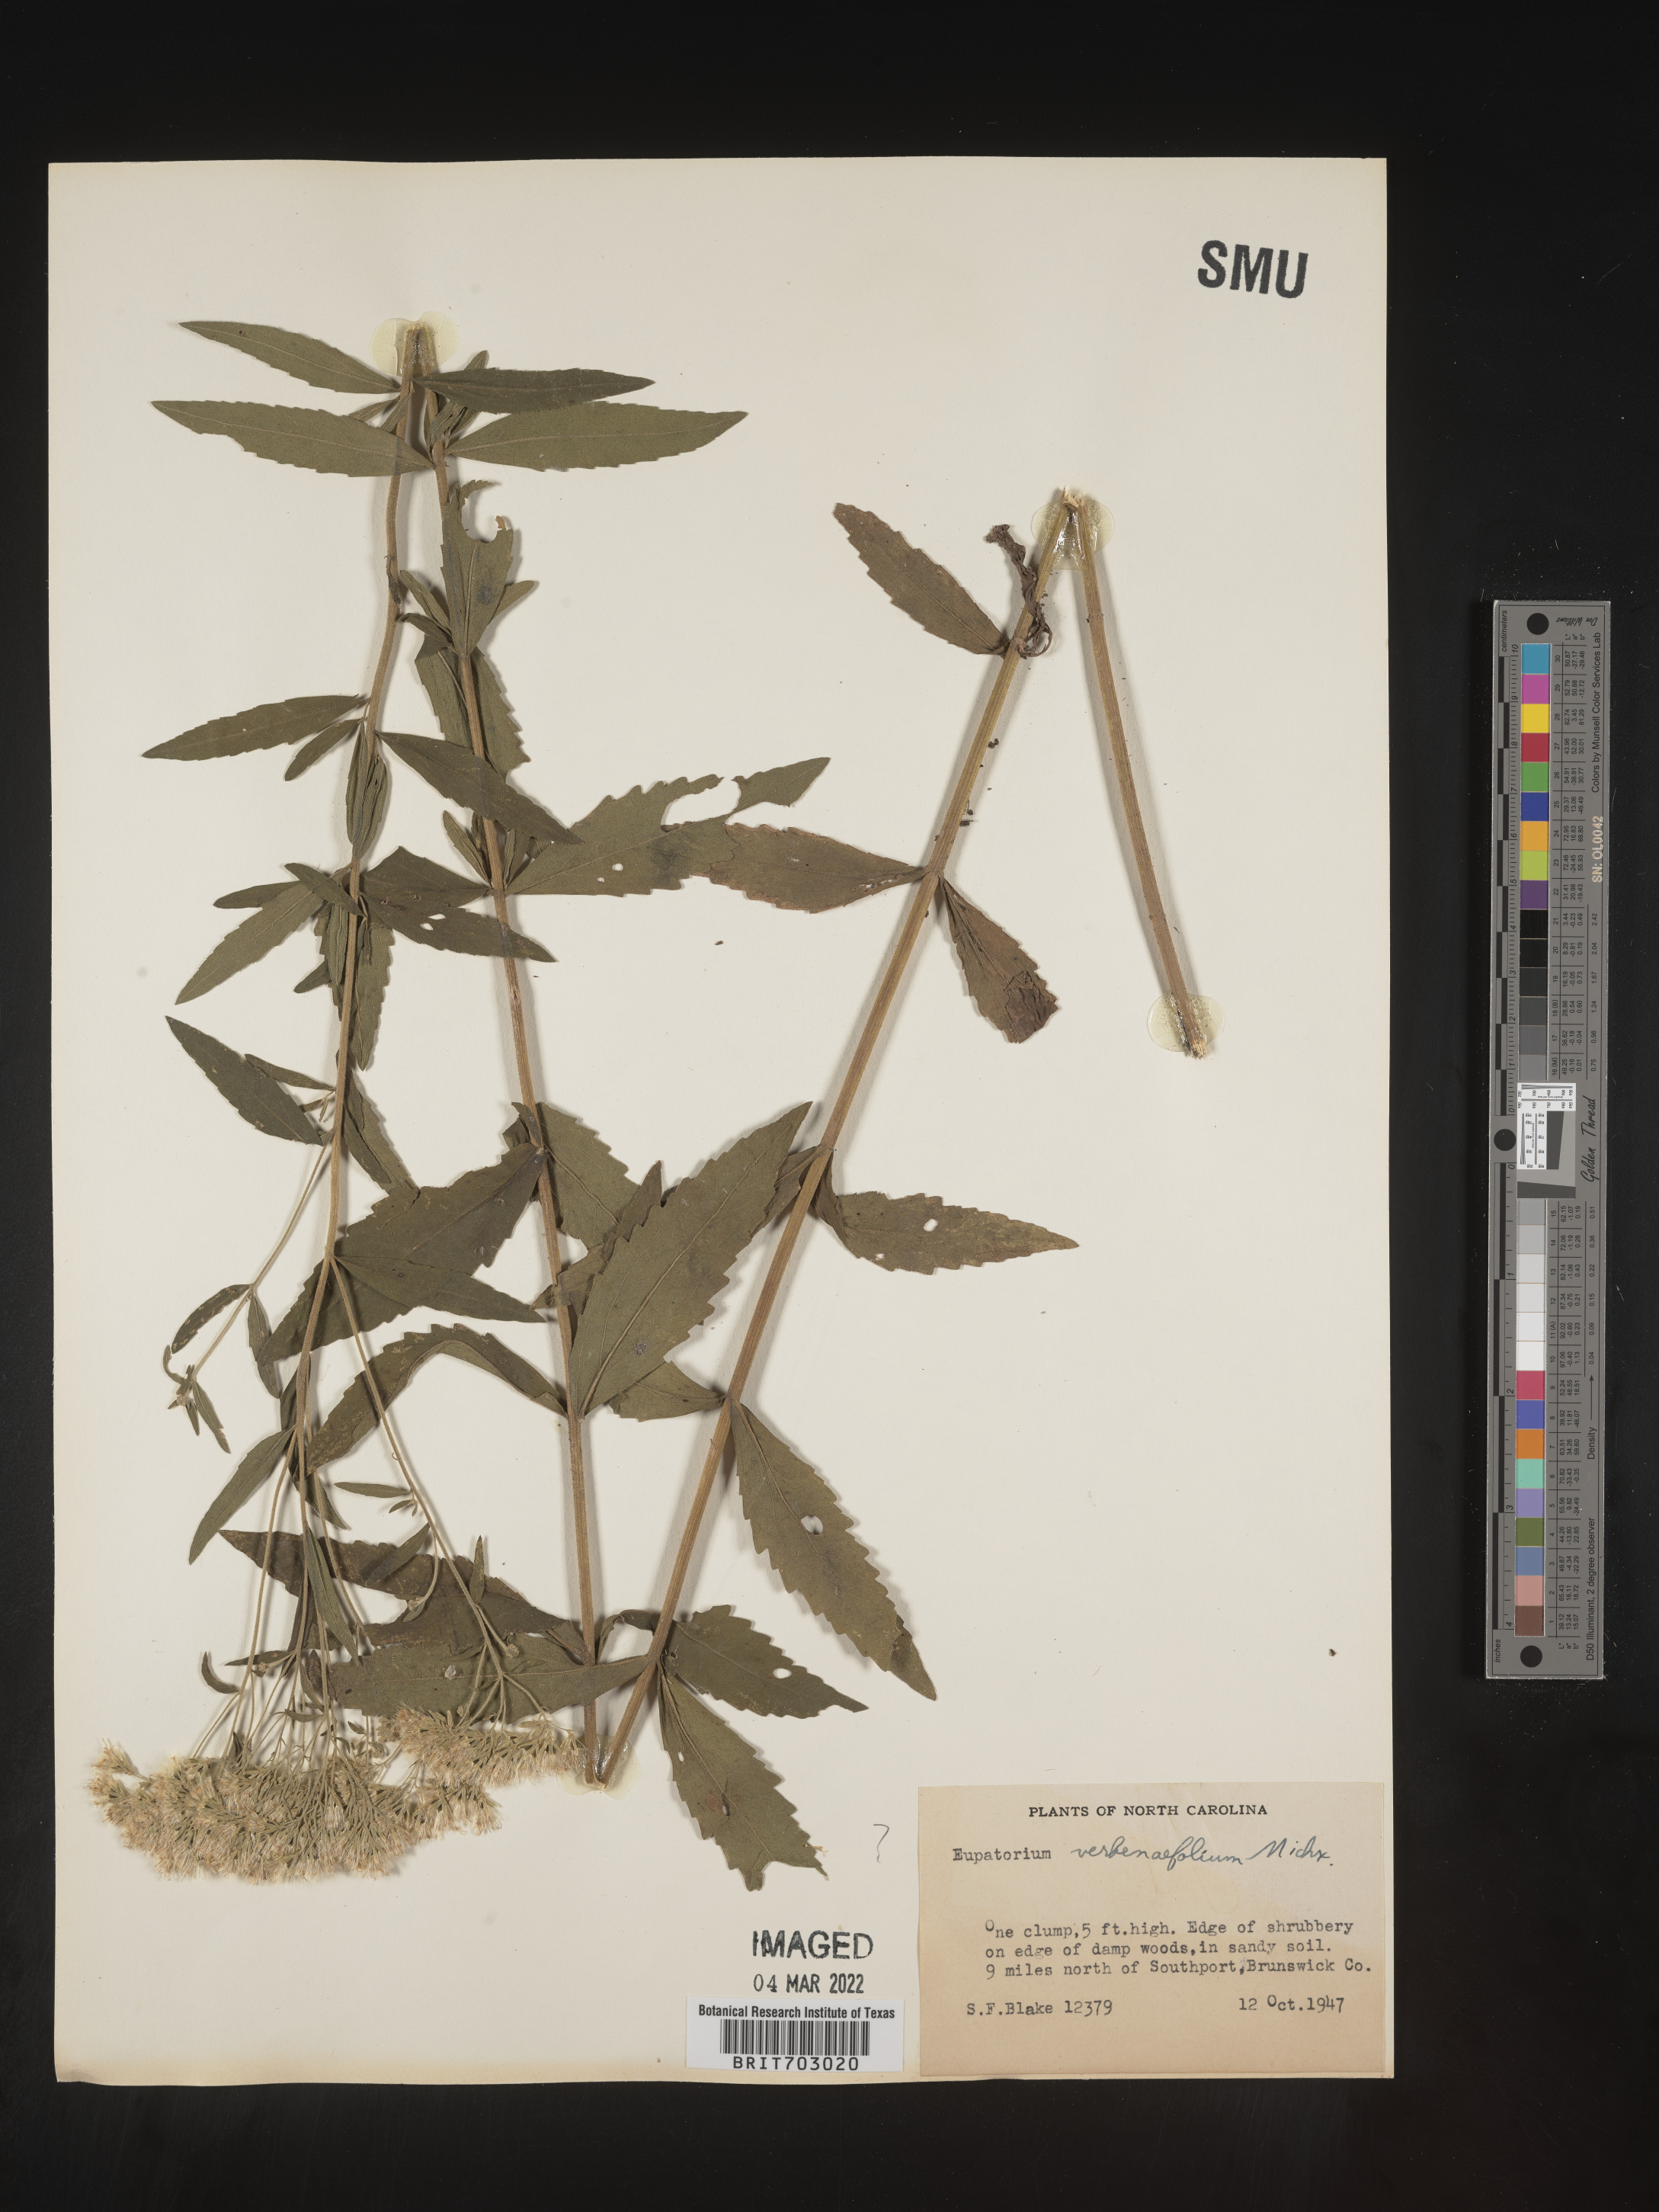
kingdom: Plantae
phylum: Tracheophyta
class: Magnoliopsida
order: Asterales
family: Asteraceae
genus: Eupatorium
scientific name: Eupatorium
